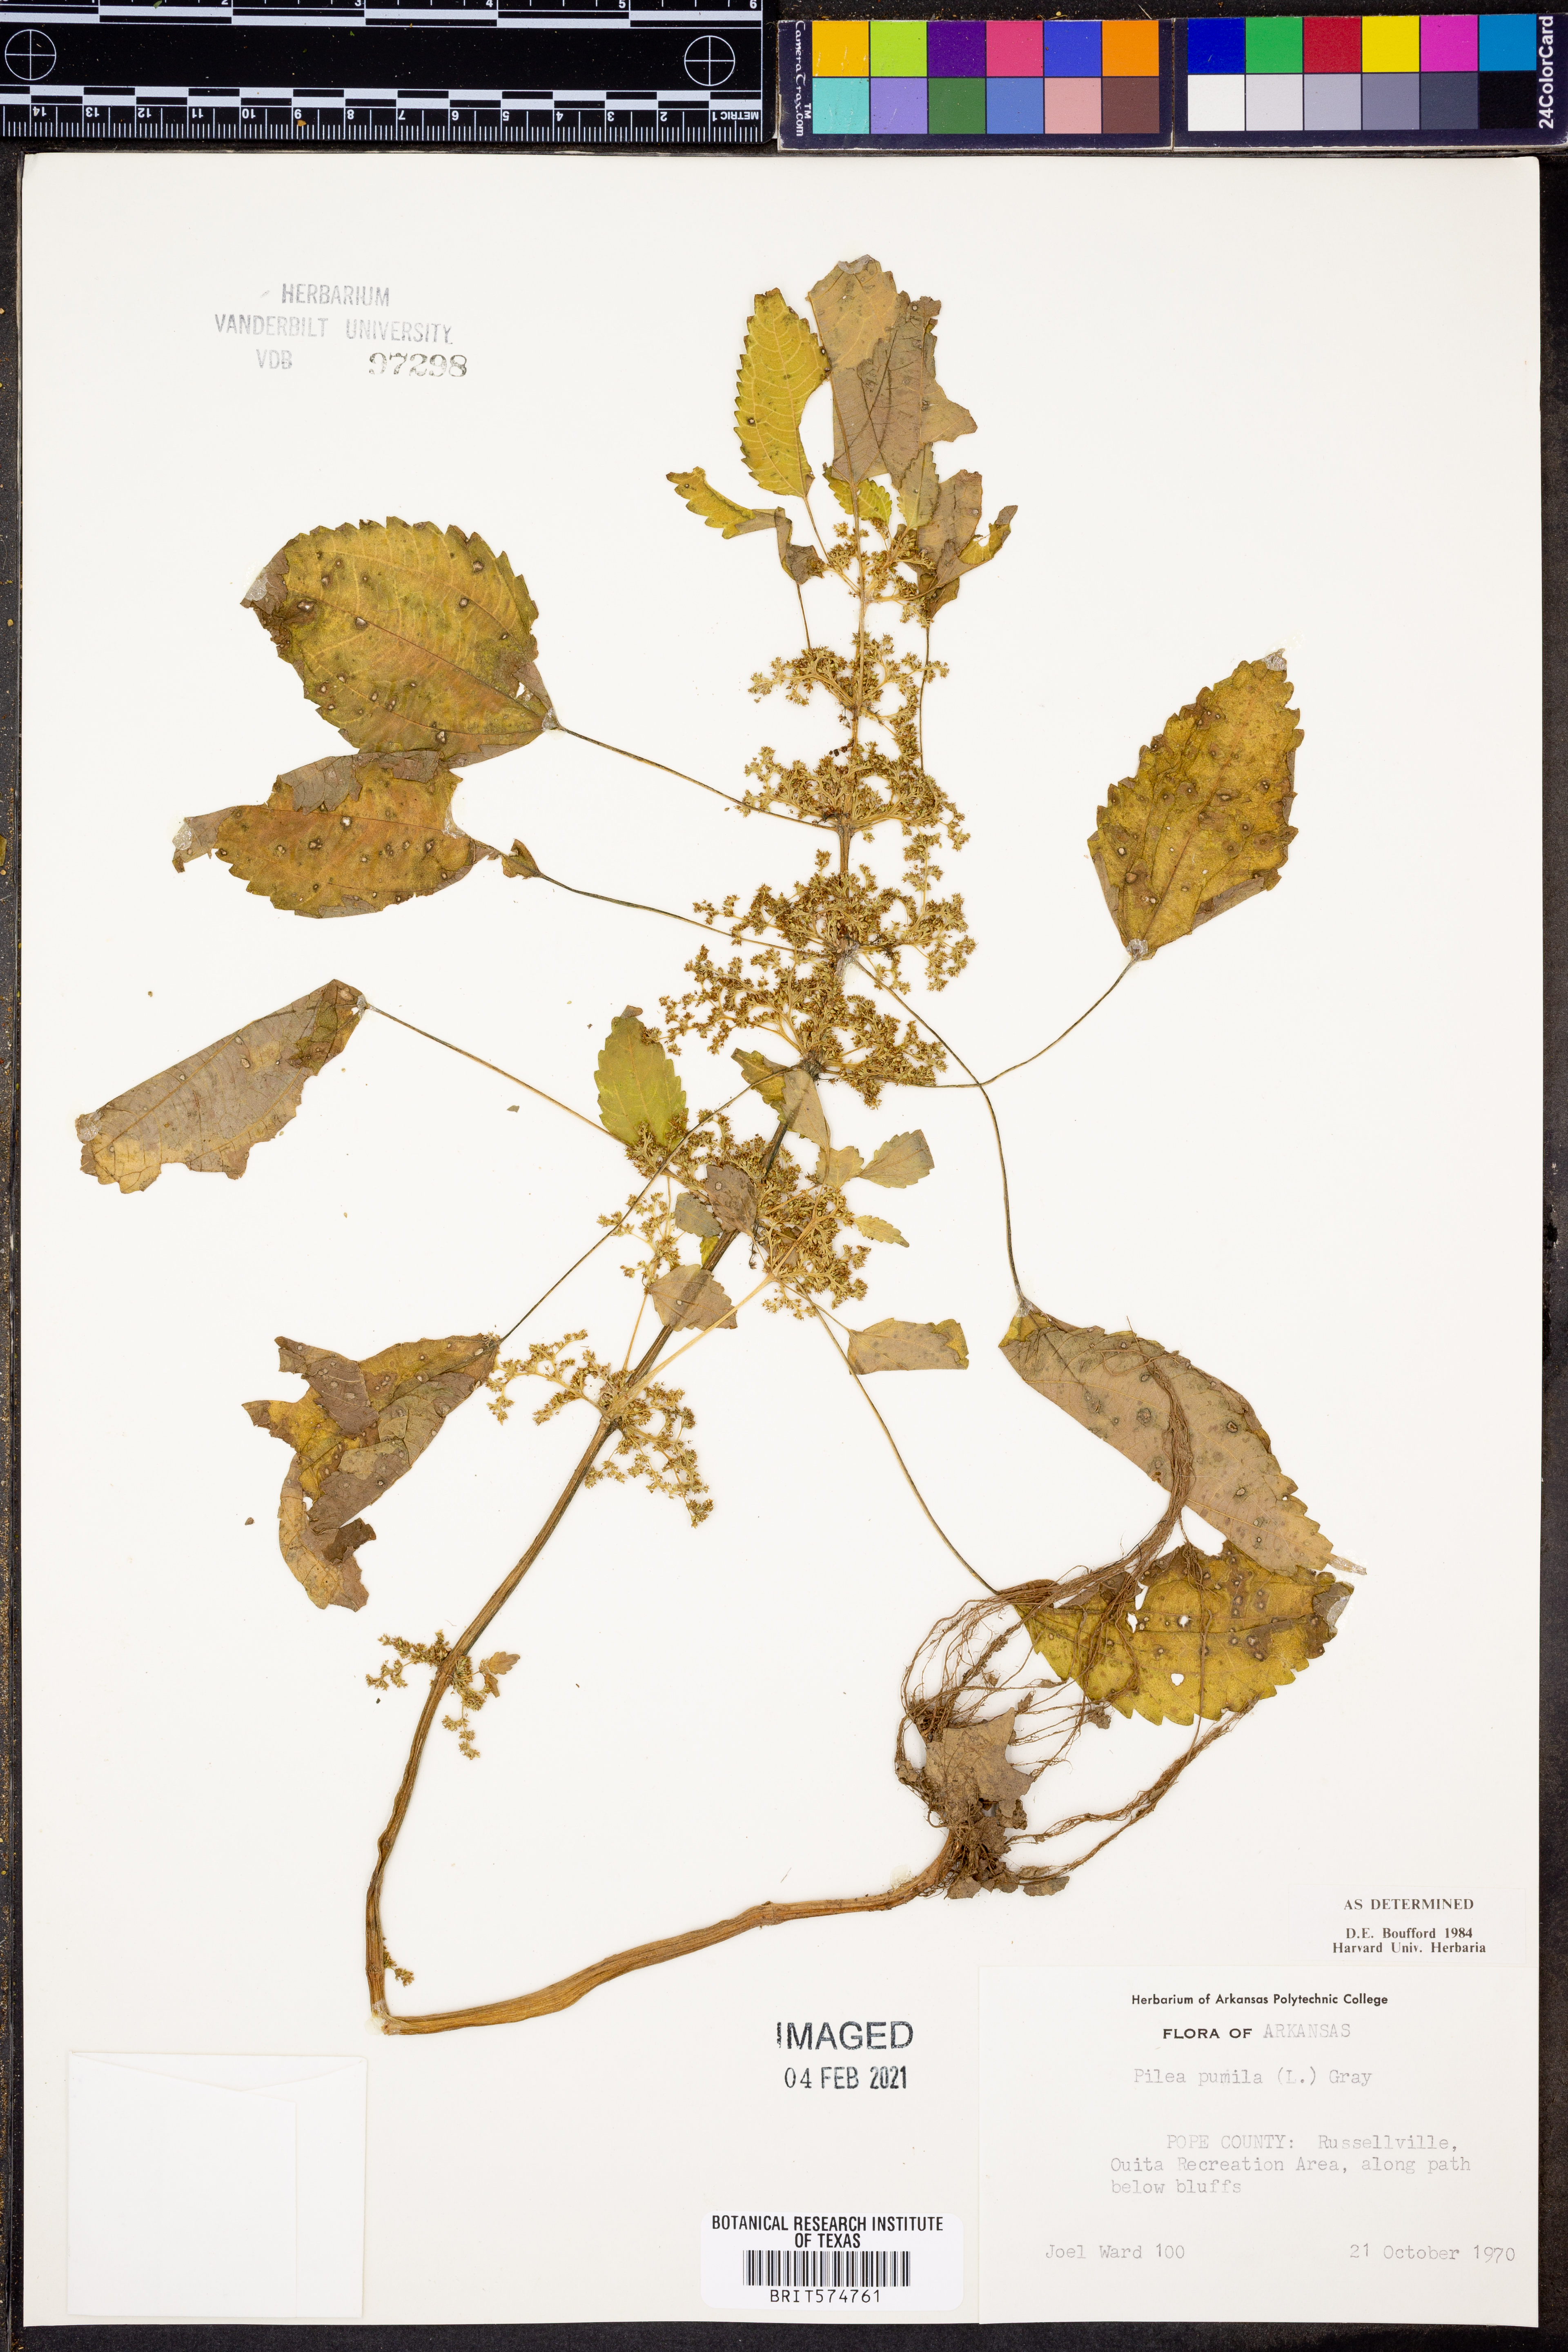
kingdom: Plantae
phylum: Tracheophyta
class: Magnoliopsida
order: Rosales
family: Urticaceae
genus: Pilea
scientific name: Pilea pumila
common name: Clearweed
